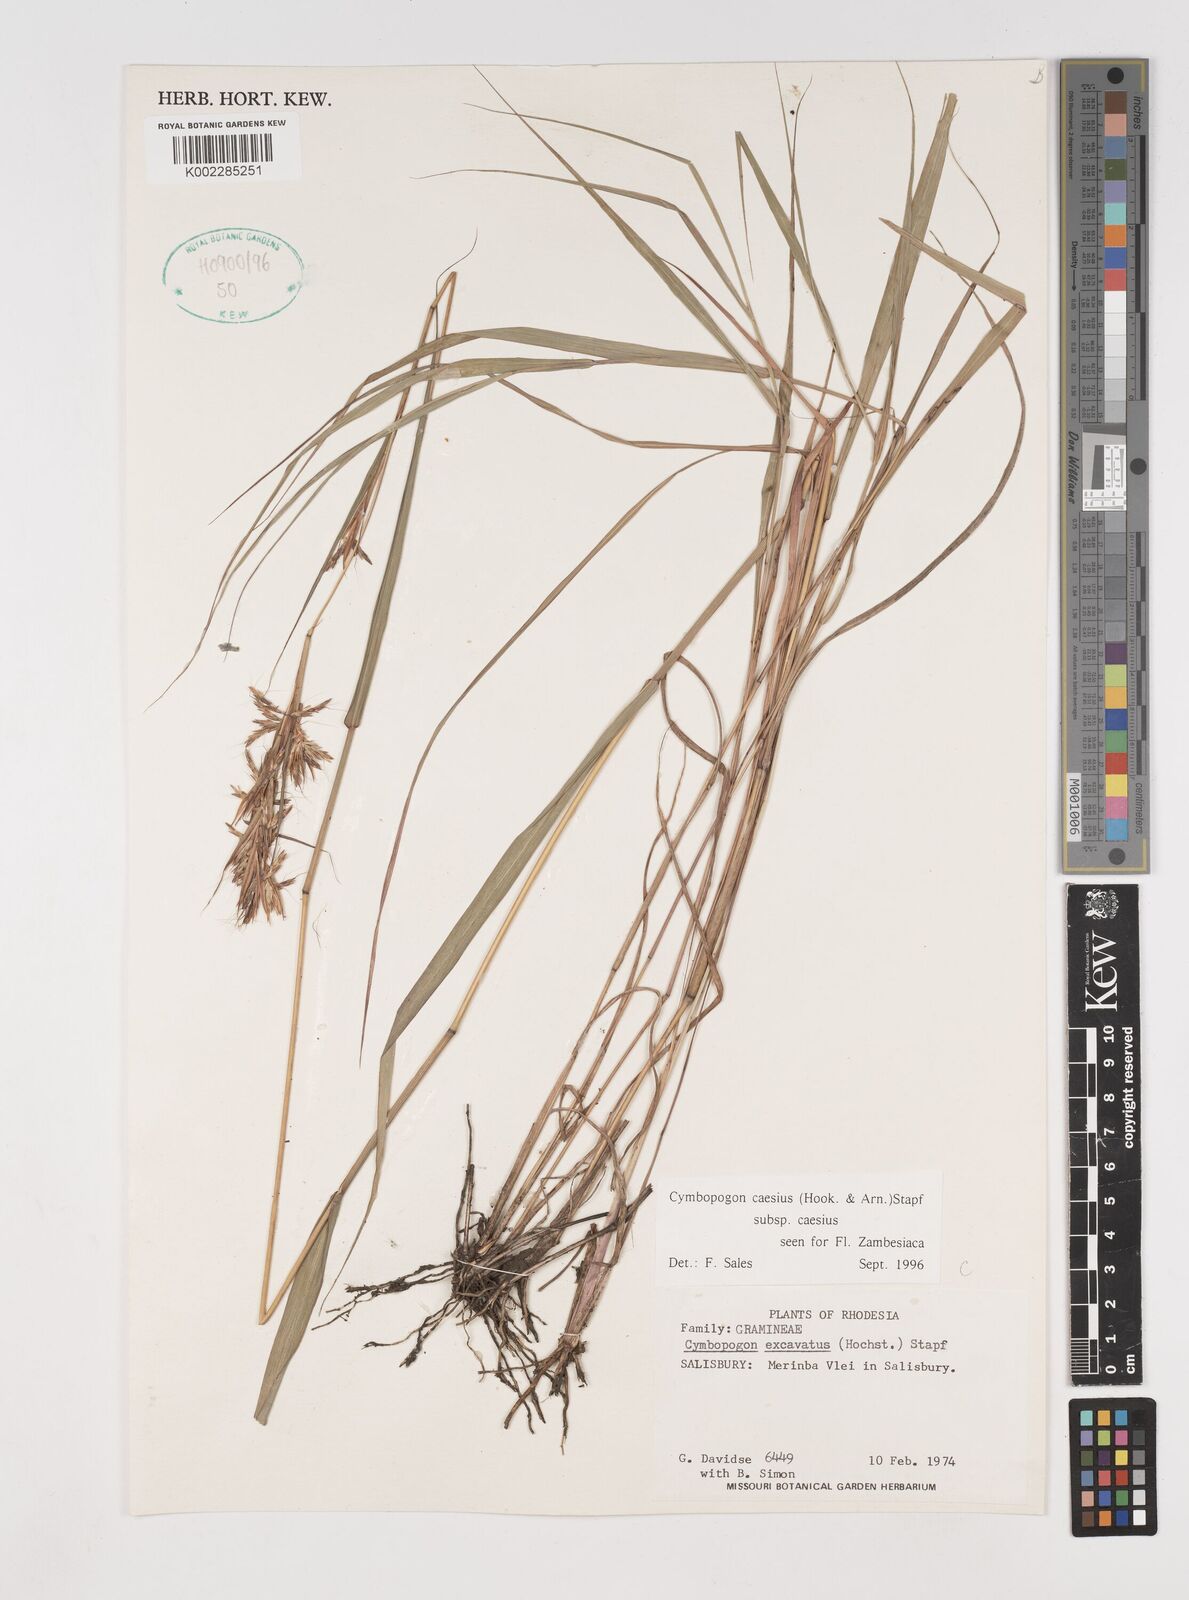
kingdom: Plantae
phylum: Tracheophyta
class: Liliopsida
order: Poales
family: Poaceae
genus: Cymbopogon
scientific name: Cymbopogon caesius
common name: Kachi grass
